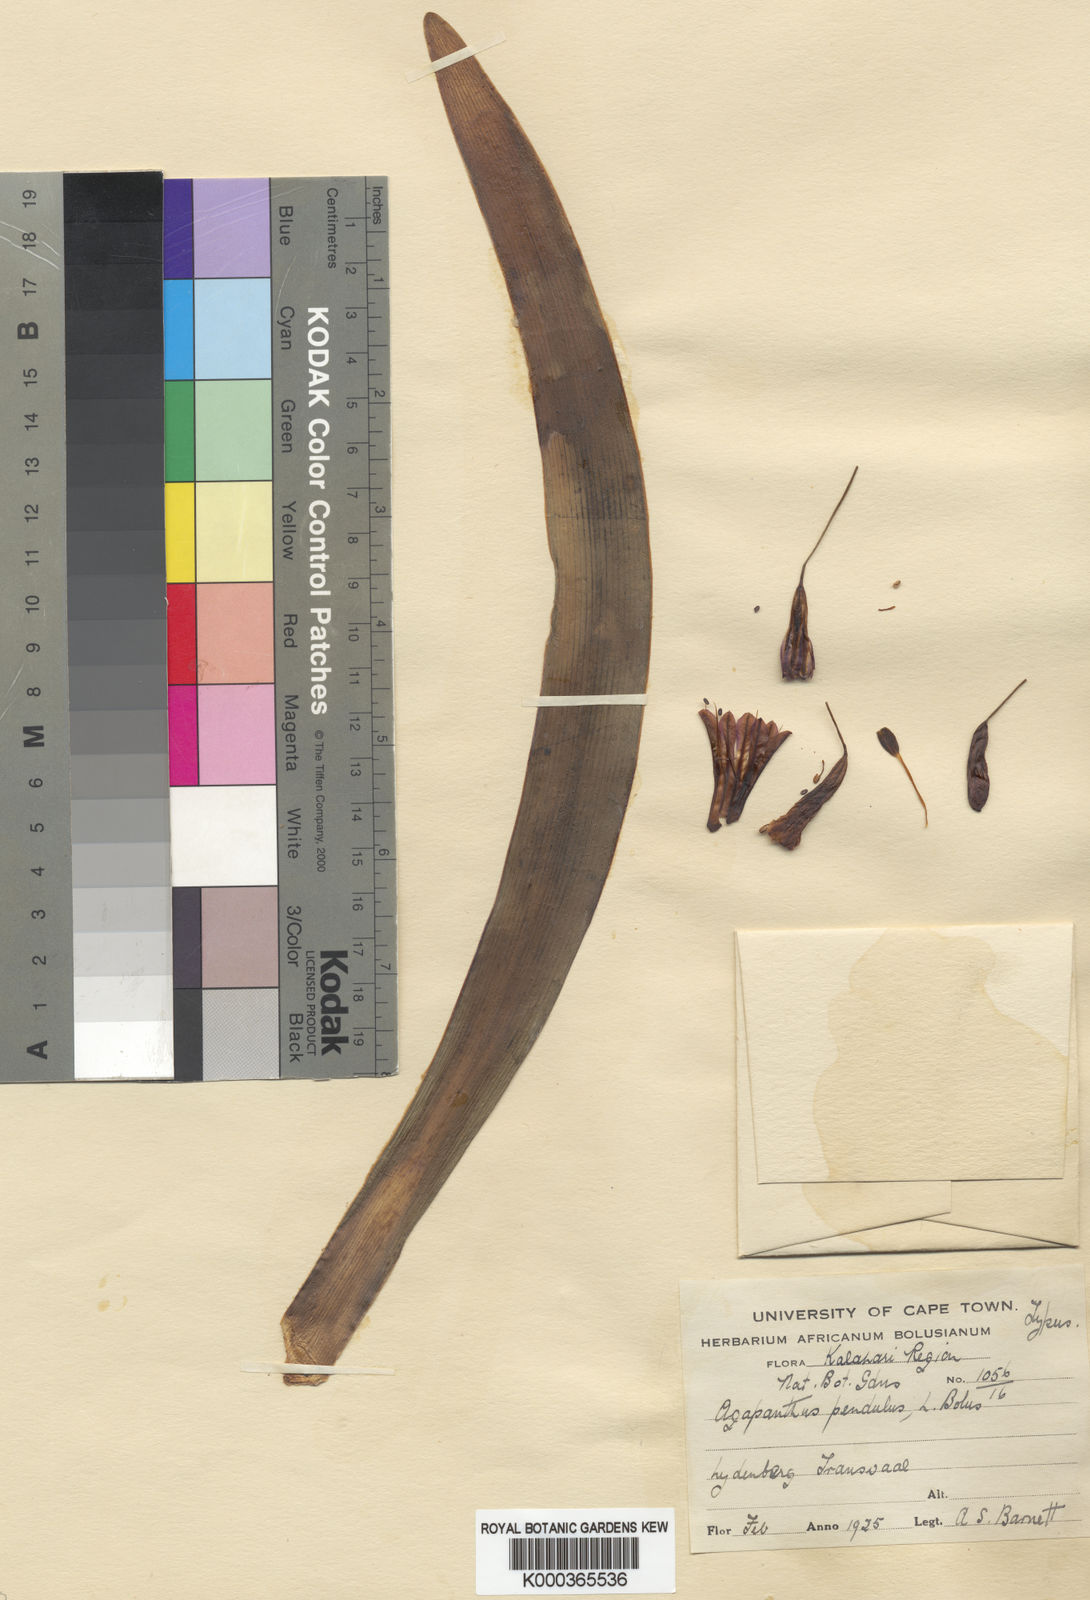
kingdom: Plantae
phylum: Tracheophyta
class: Liliopsida
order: Asparagales
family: Amaryllidaceae
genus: Agapanthus
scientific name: Agapanthus inapertus
